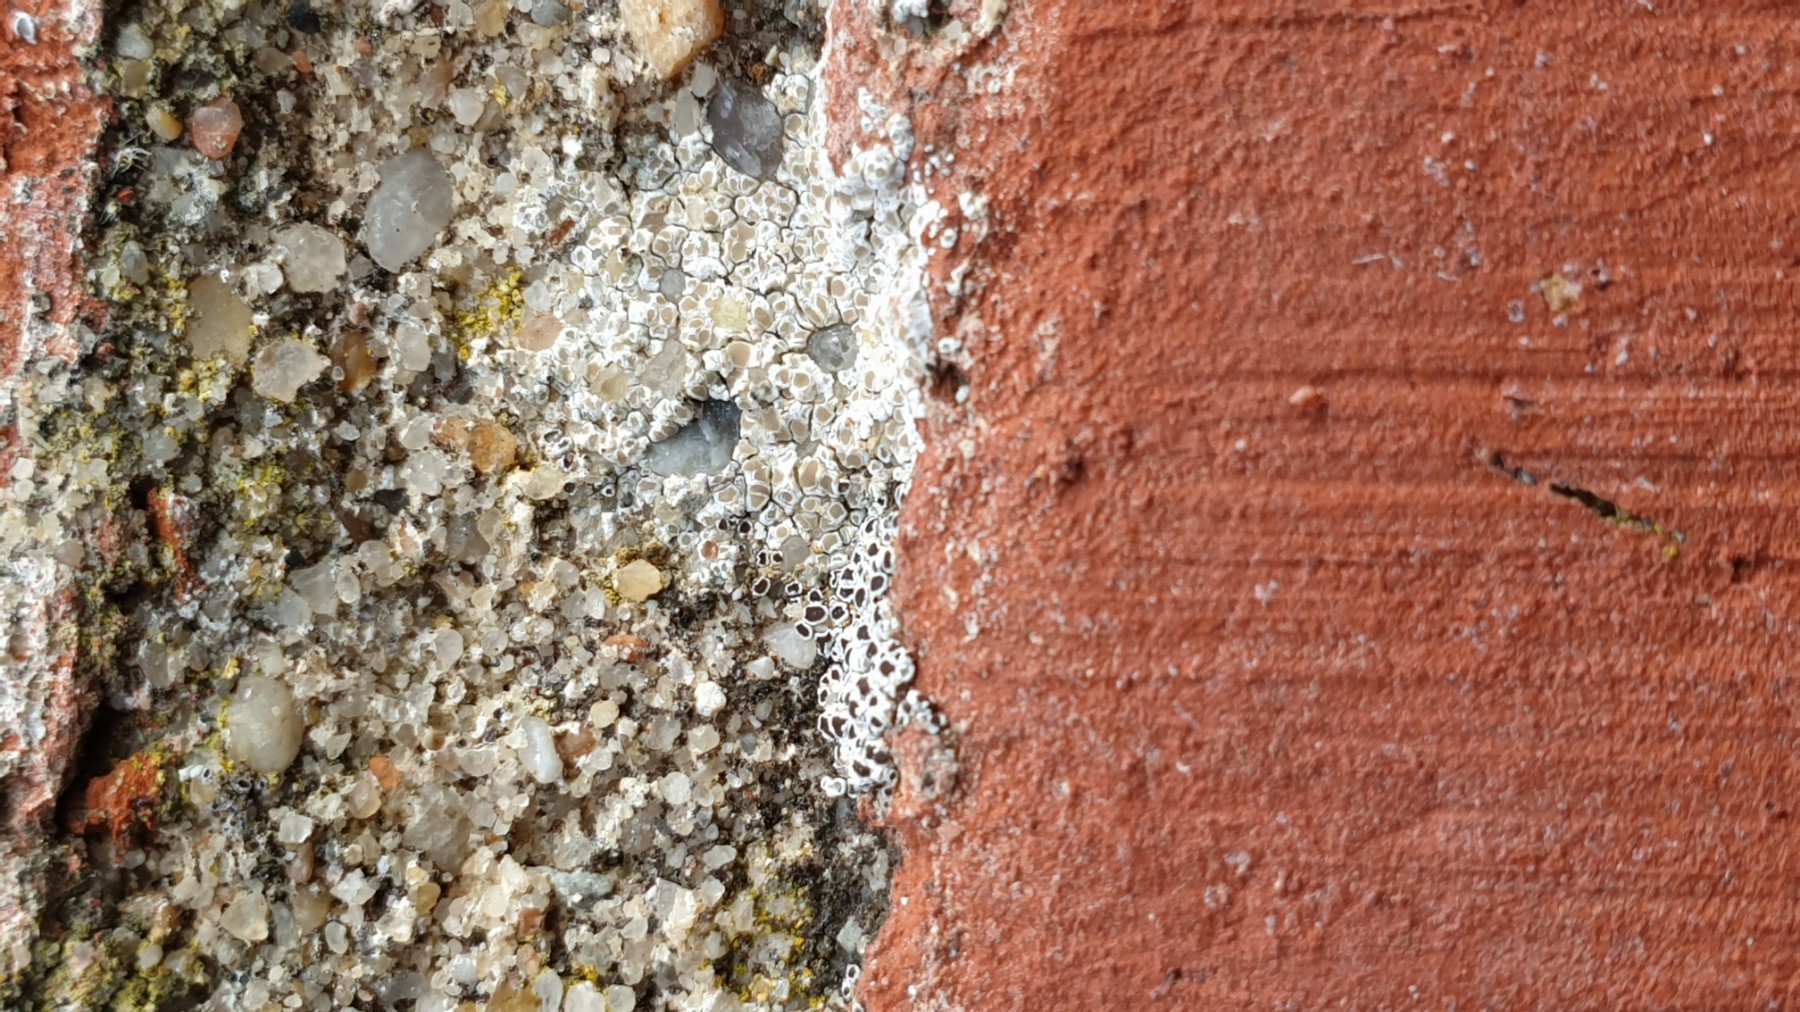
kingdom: Fungi
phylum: Ascomycota
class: Lecanoromycetes
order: Lecanorales
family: Lecanoraceae
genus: Polyozosia
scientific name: Polyozosia albescens
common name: cement-kantskivelav
